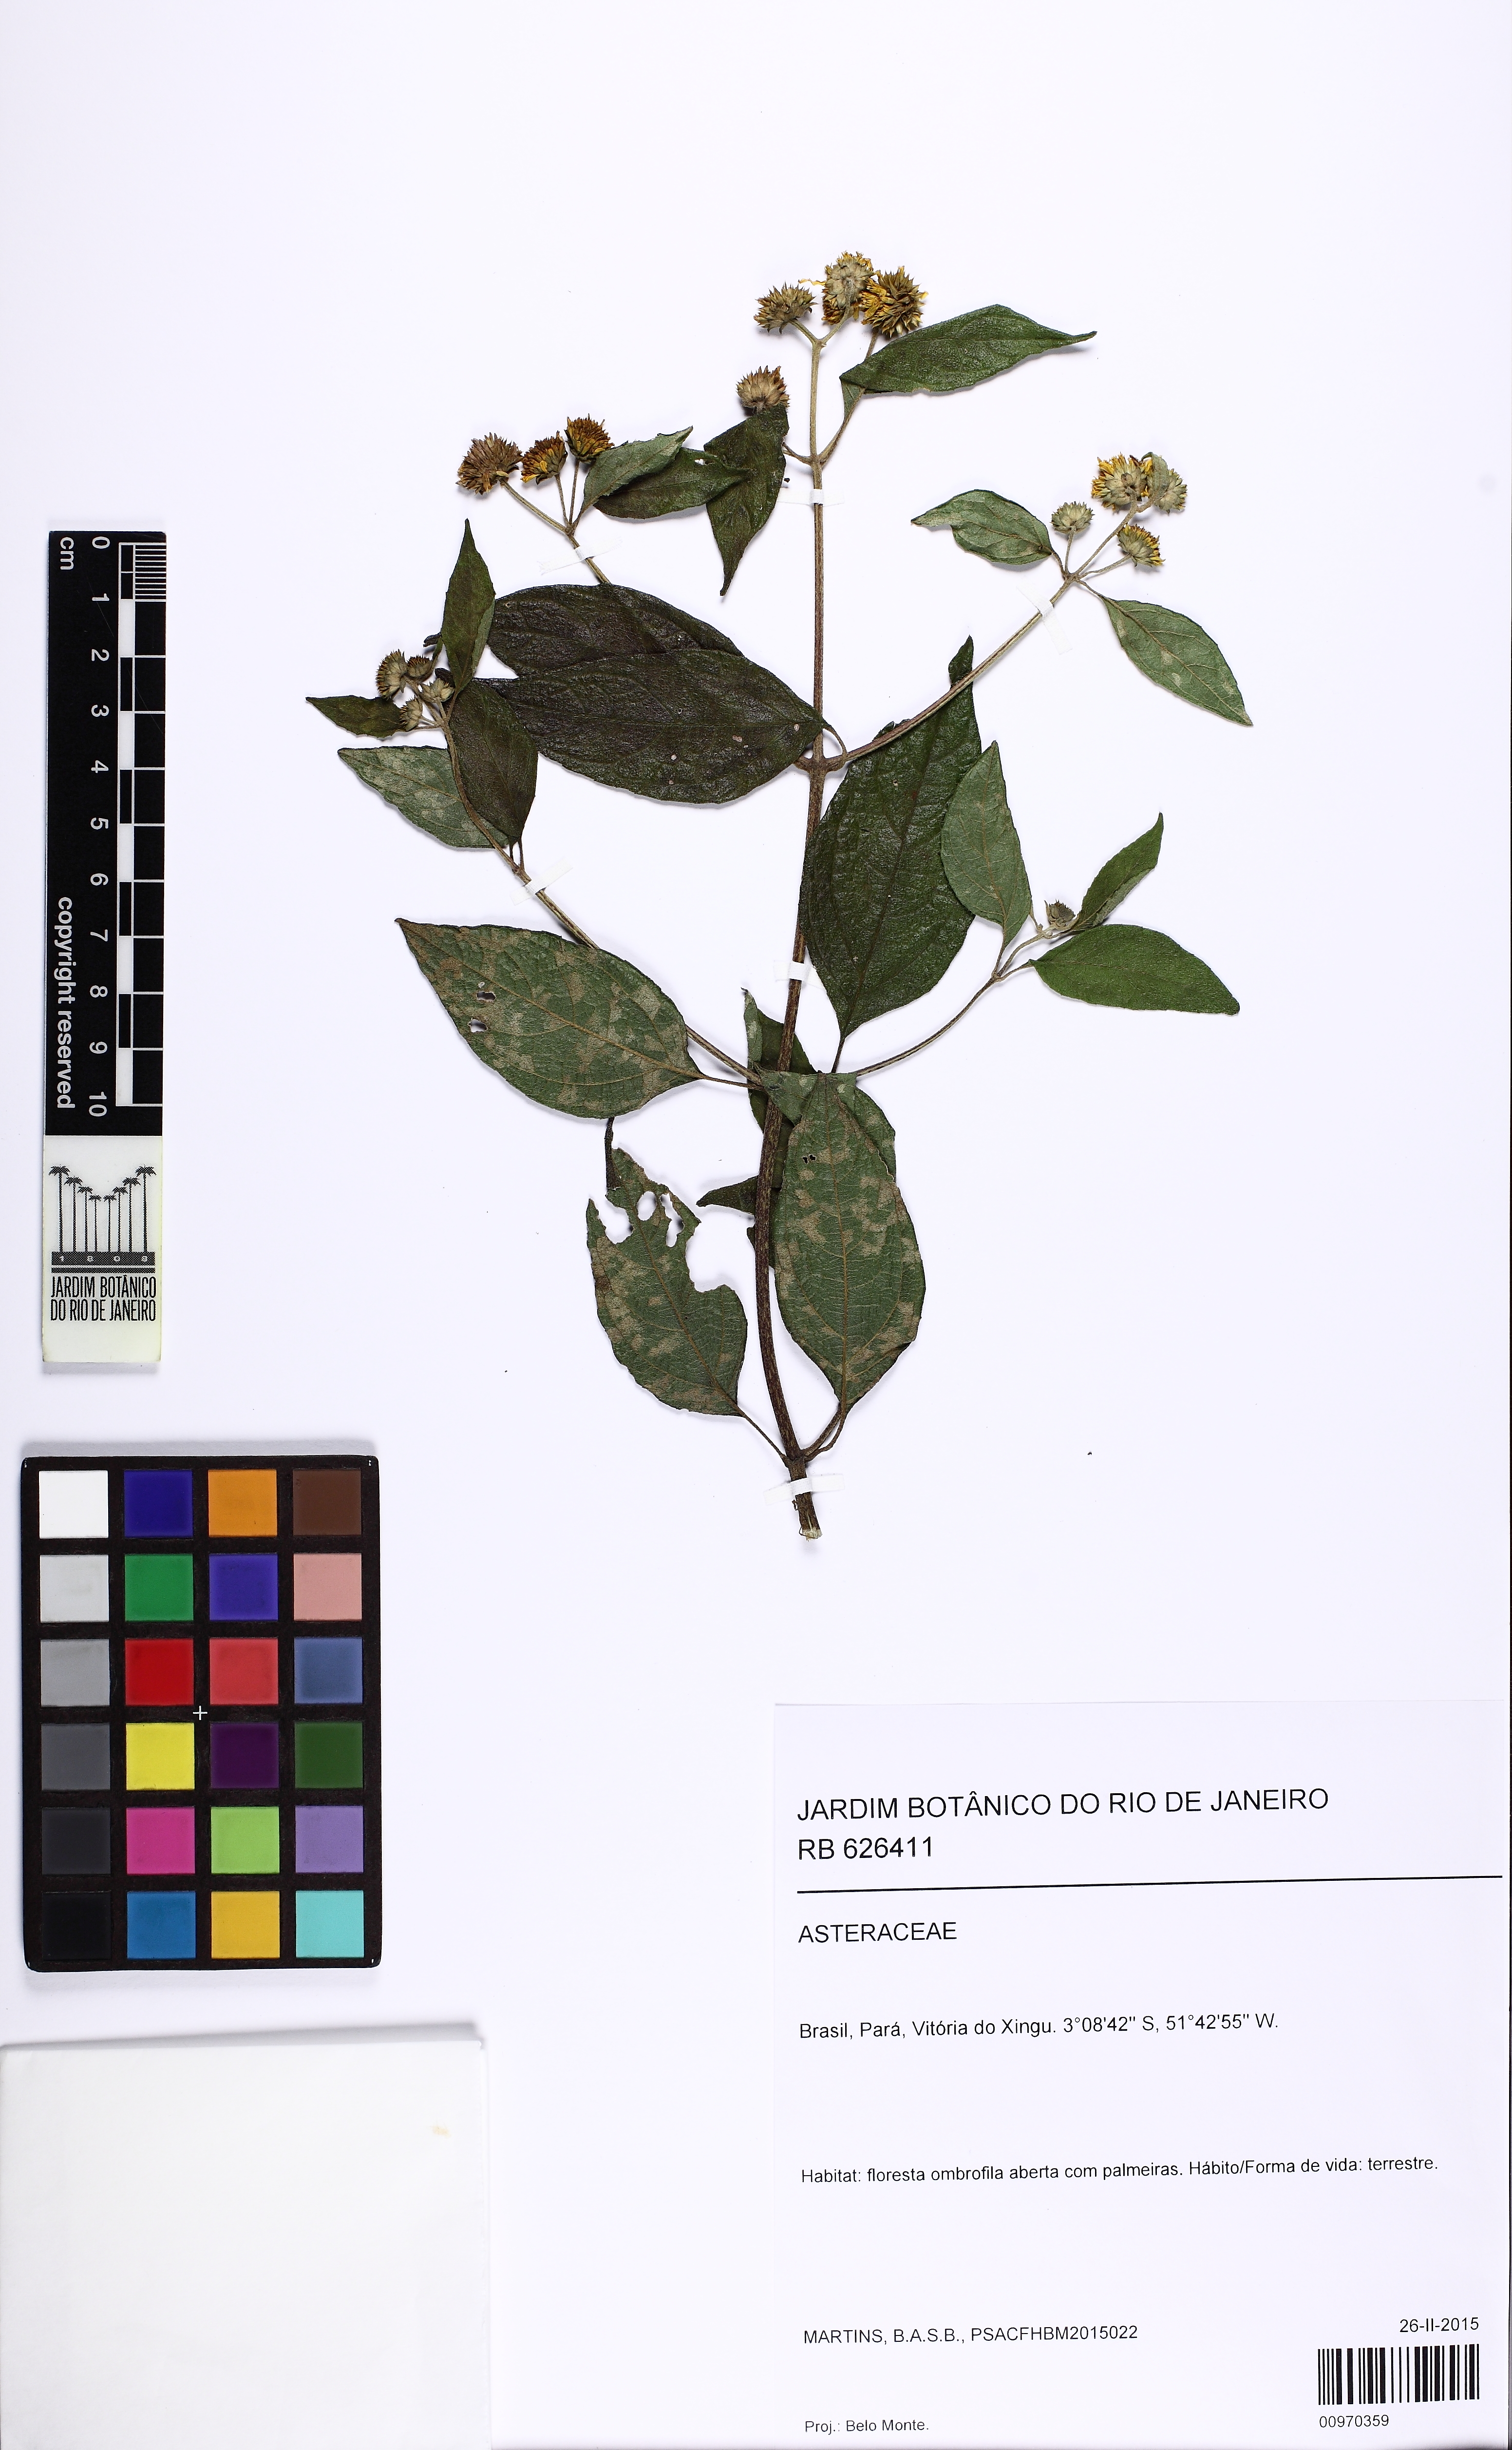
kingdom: Plantae
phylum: Tracheophyta
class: Magnoliopsida
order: Asterales
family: Asteraceae
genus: Tilesia
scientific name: Tilesia baccata
